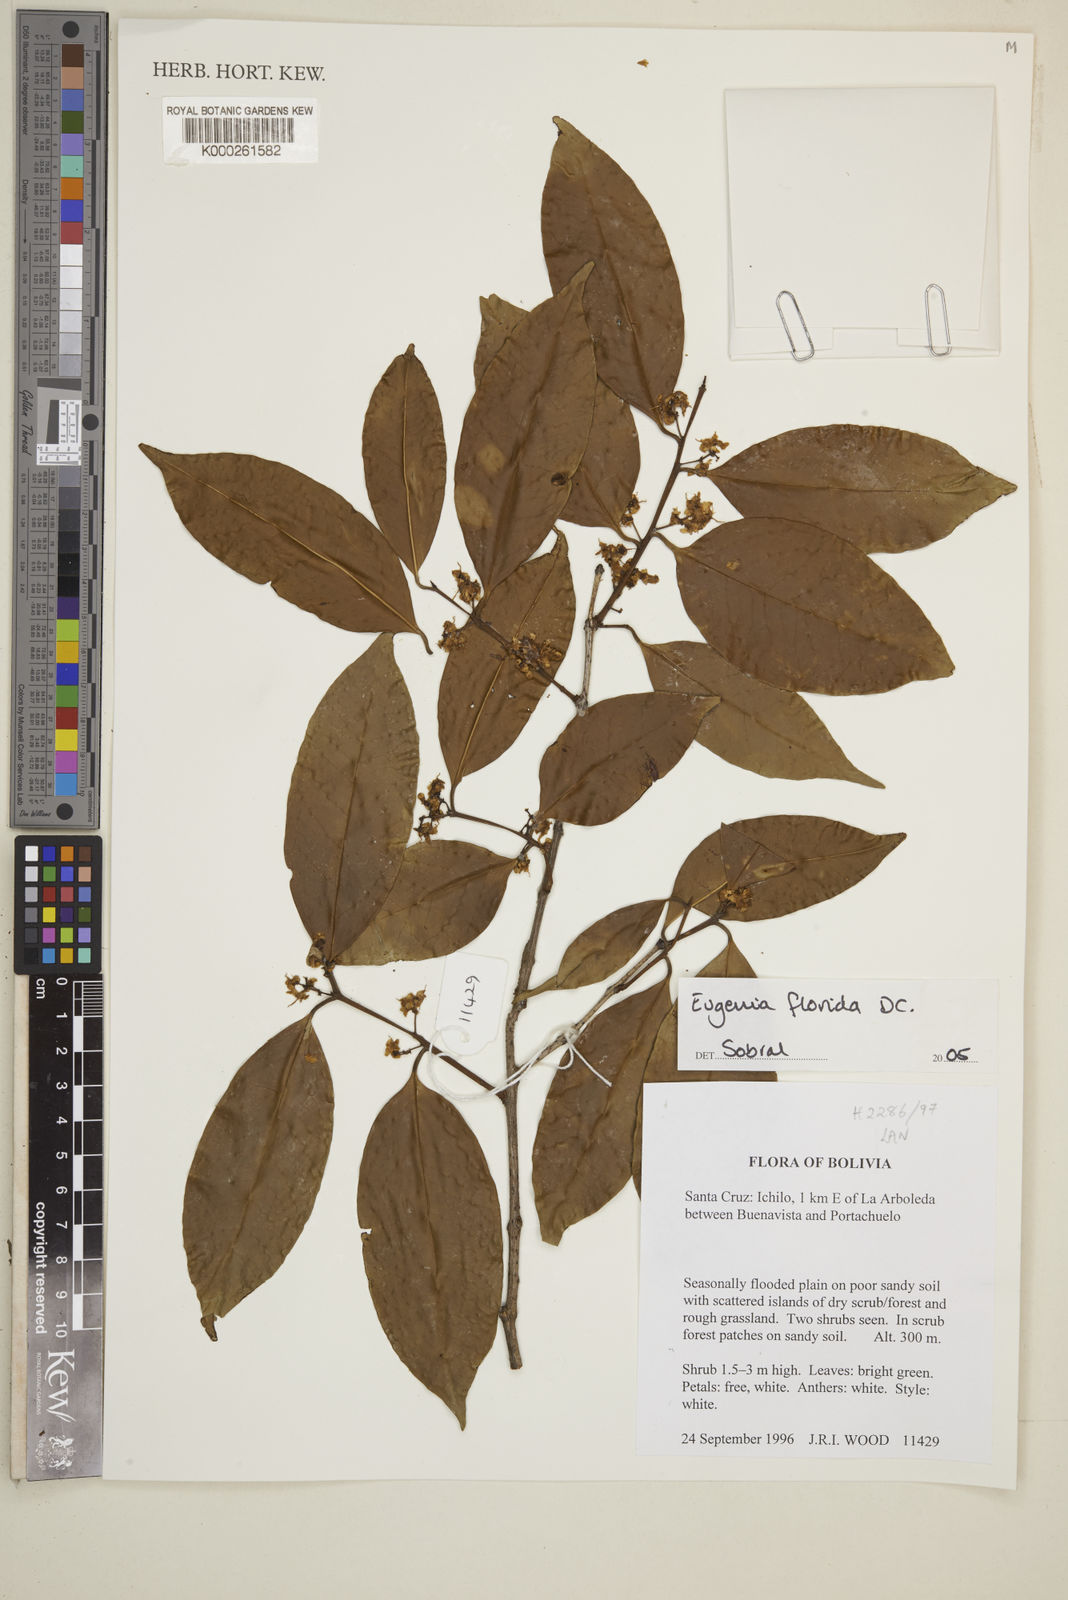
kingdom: Plantae
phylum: Tracheophyta
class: Magnoliopsida
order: Myrtales
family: Myrtaceae
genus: Eugenia
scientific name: Eugenia florida
